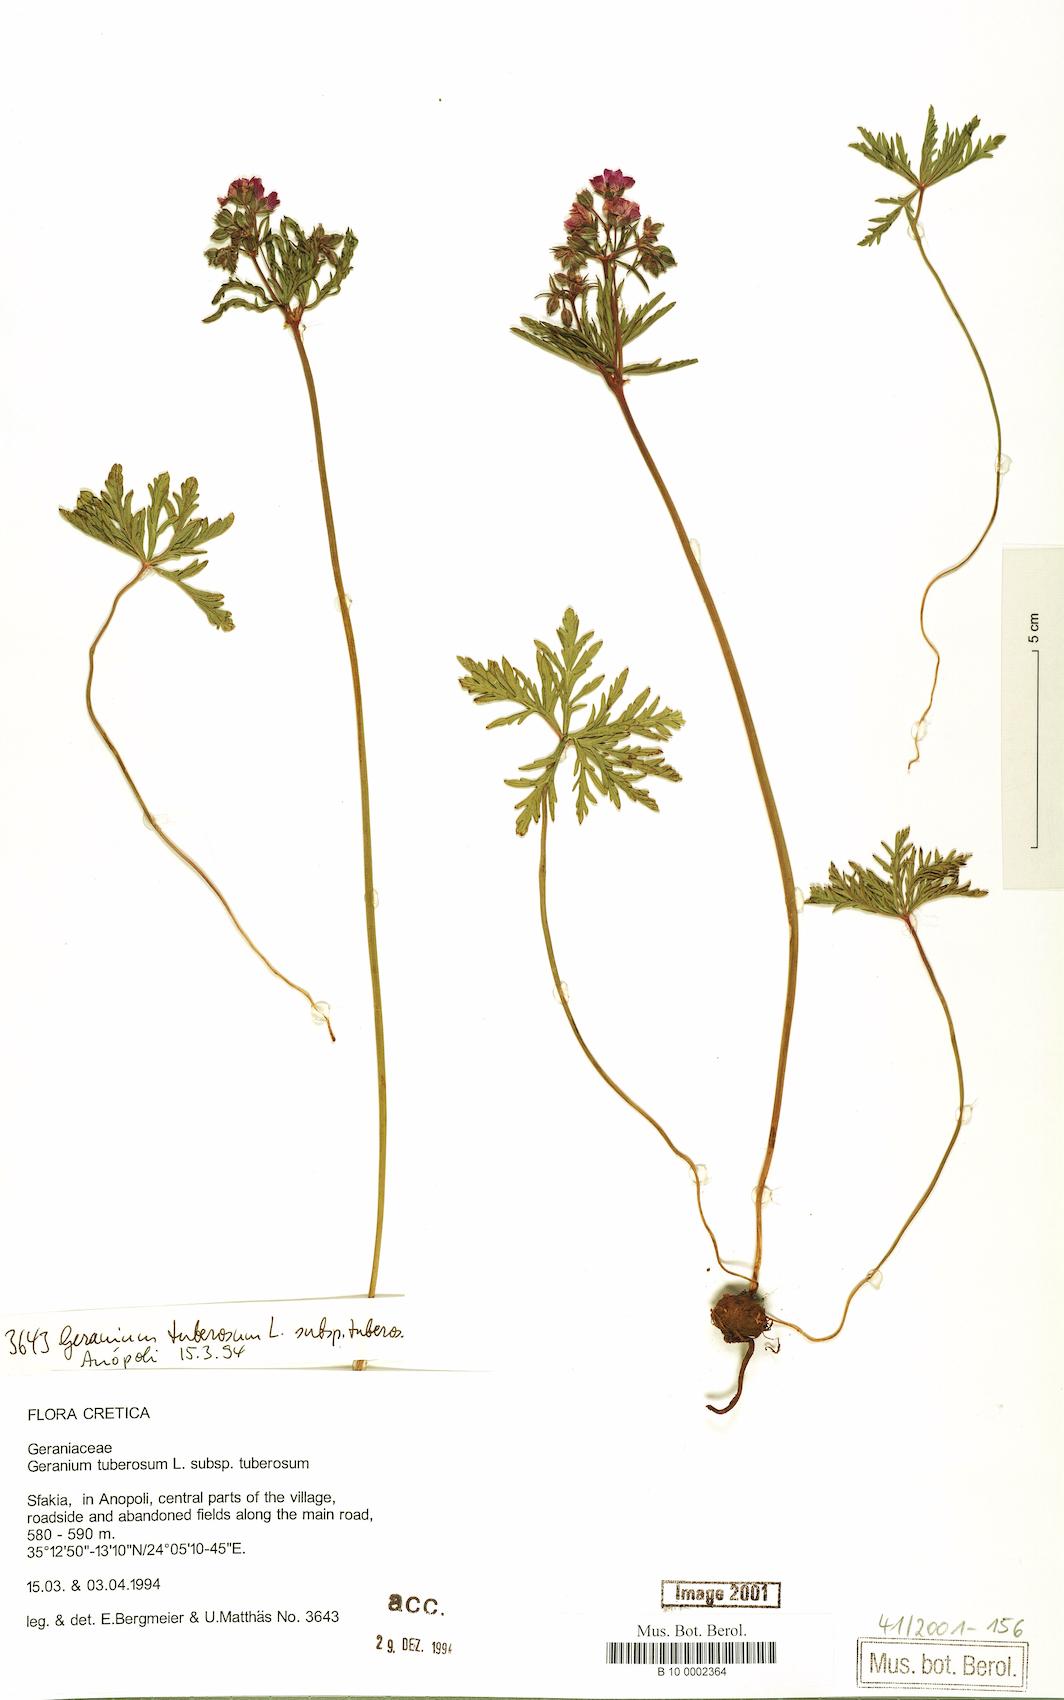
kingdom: Plantae
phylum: Tracheophyta
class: Magnoliopsida
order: Geraniales
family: Geraniaceae
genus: Geranium
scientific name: Geranium tuberosum
